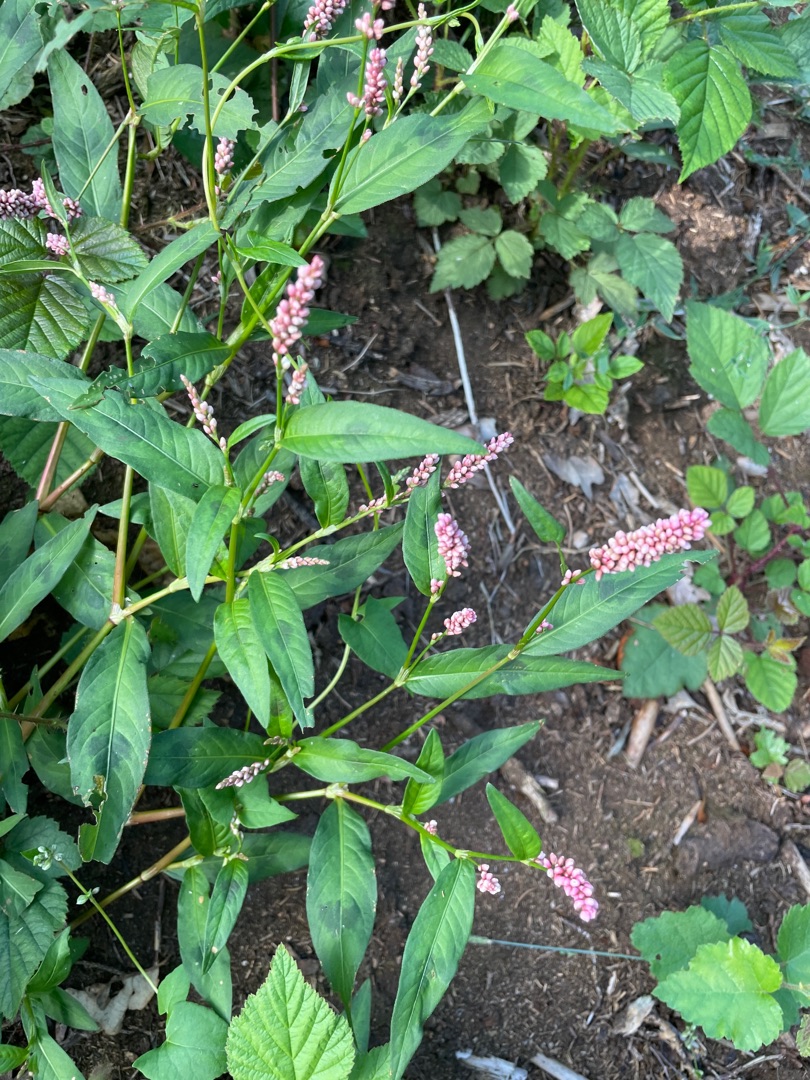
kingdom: Plantae
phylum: Tracheophyta
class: Magnoliopsida
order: Caryophyllales
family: Polygonaceae
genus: Persicaria
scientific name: Persicaria maculosa
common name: Fersken-pileurt
